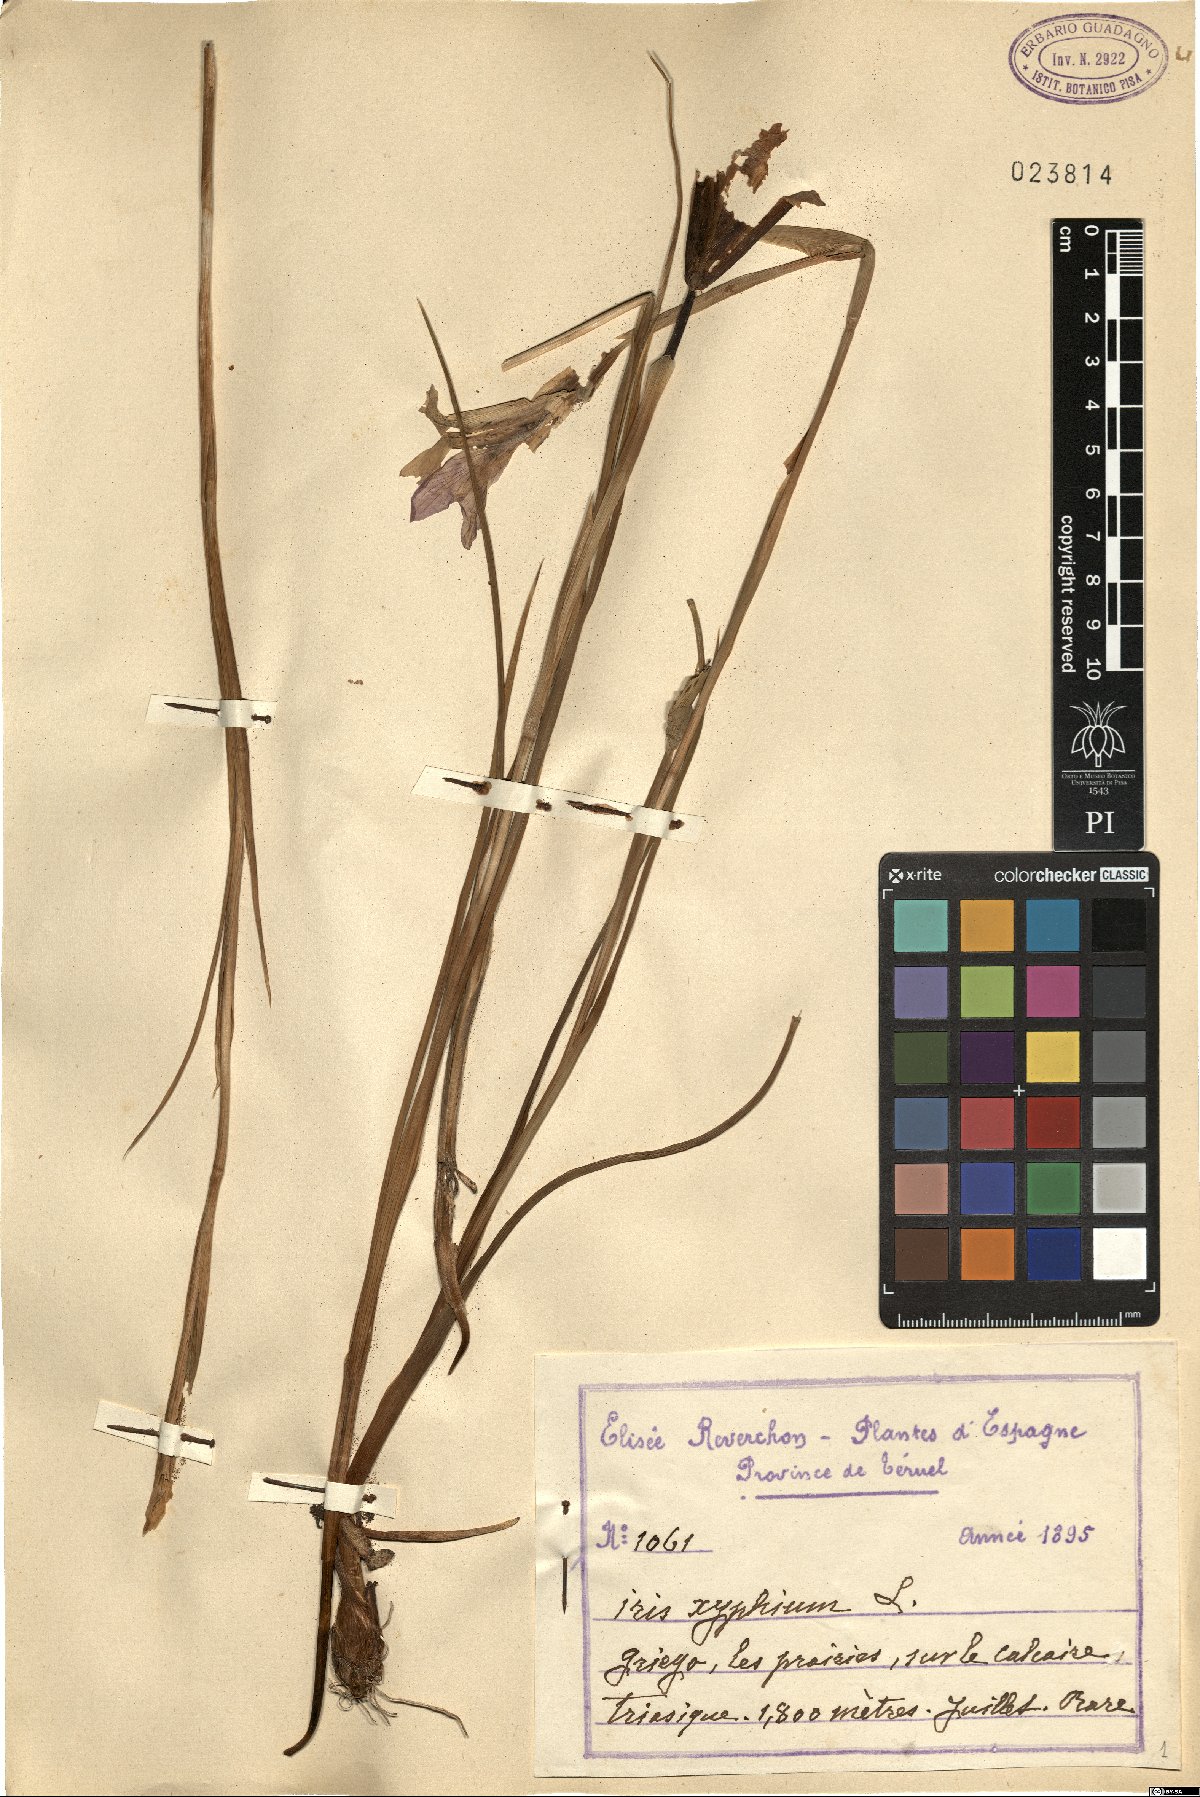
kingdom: Plantae
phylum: Tracheophyta
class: Liliopsida
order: Asparagales
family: Iridaceae
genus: Iris
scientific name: Iris xiphium
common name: Spanish iris
